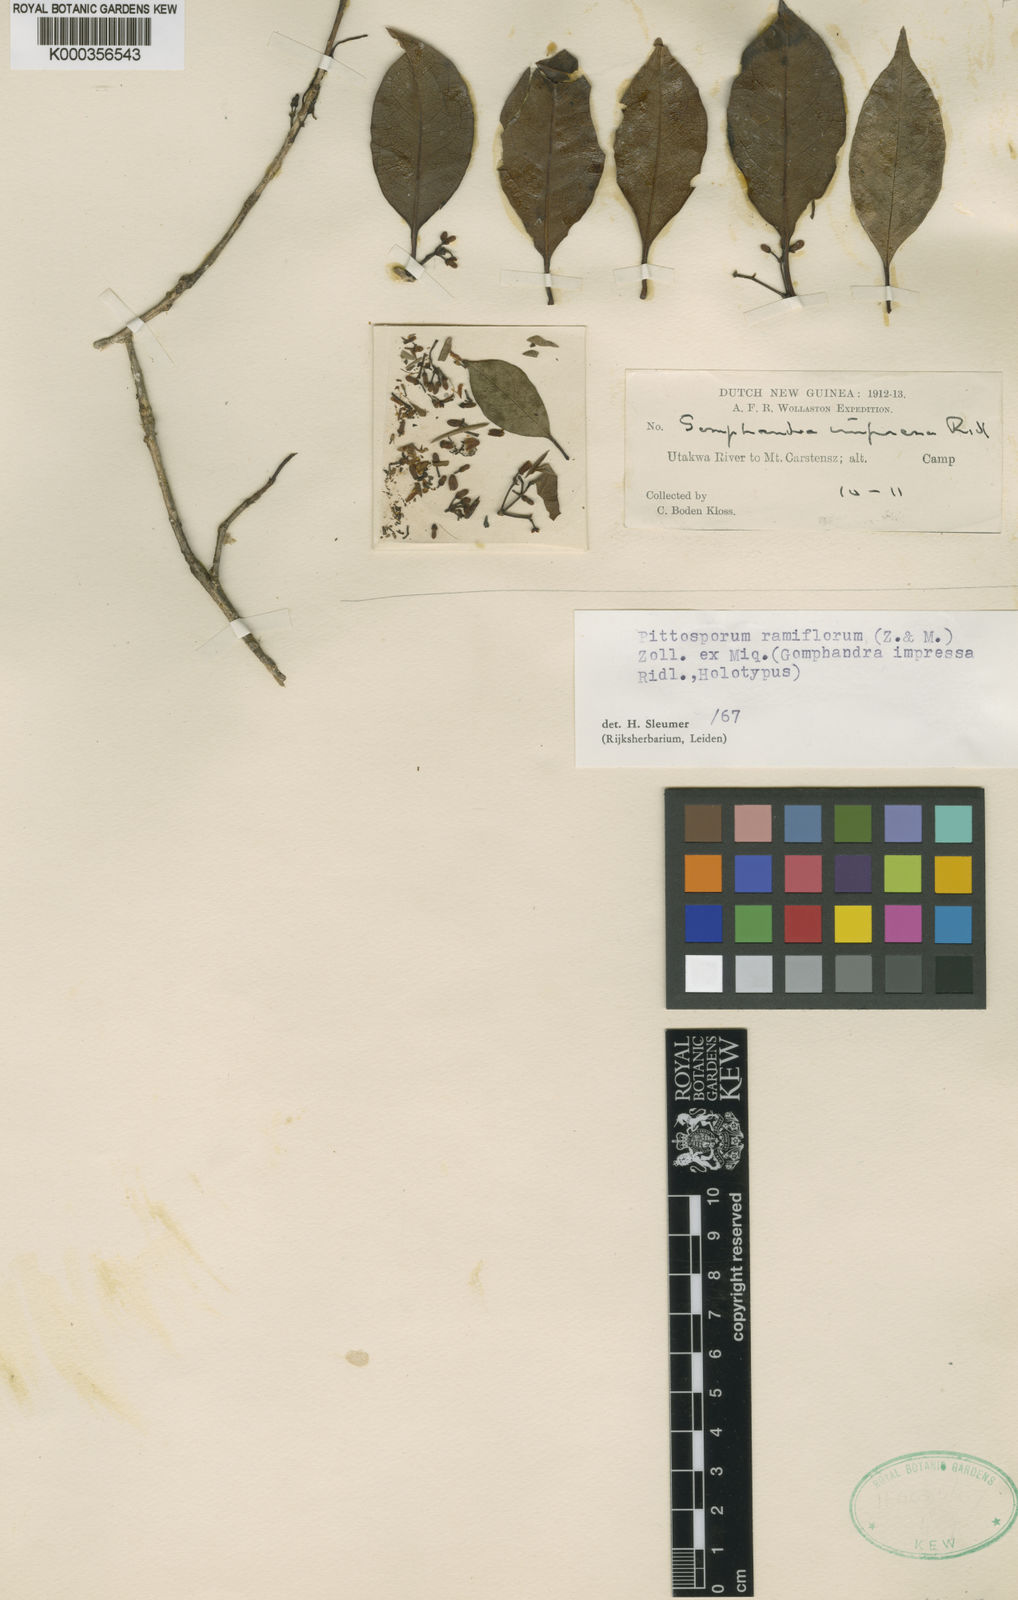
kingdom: Plantae
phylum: Tracheophyta
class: Magnoliopsida
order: Apiales
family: Pittosporaceae
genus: Pittosporum
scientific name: Pittosporum ramiflorum
